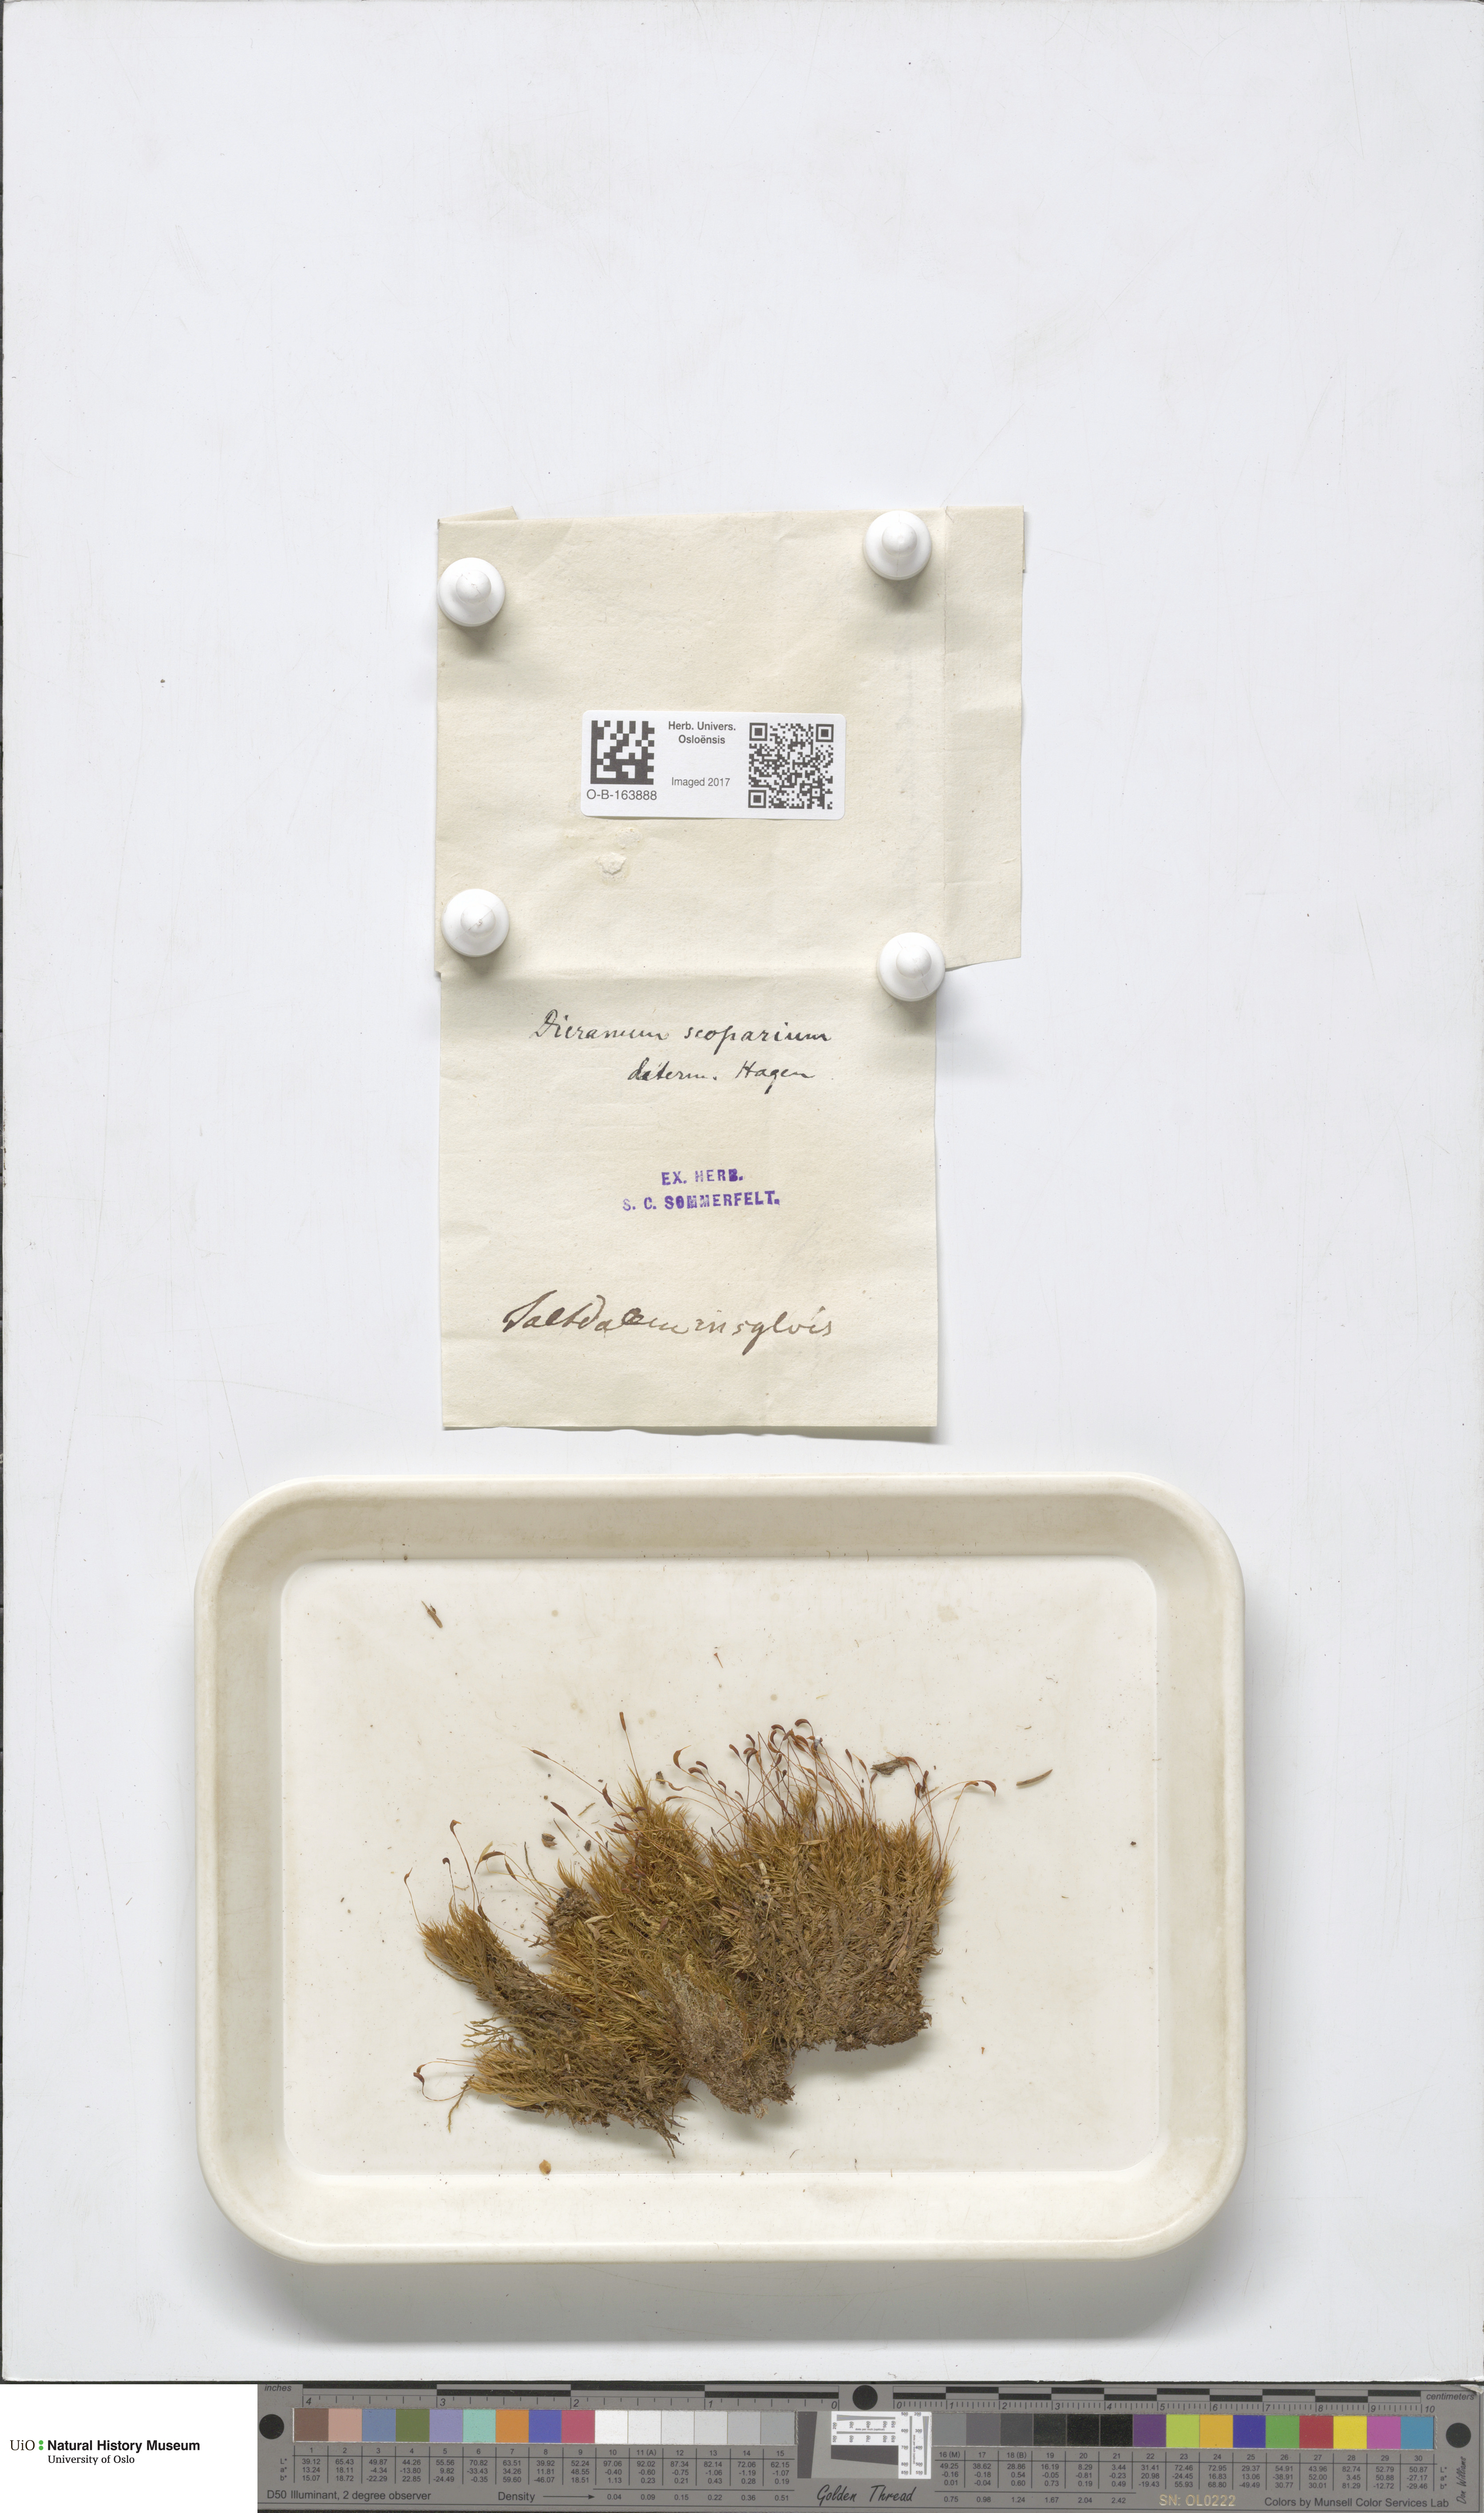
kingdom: Plantae
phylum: Bryophyta
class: Bryopsida
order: Dicranales
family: Dicranaceae
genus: Dicranum
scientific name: Dicranum scoparium
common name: Broom fork-moss
